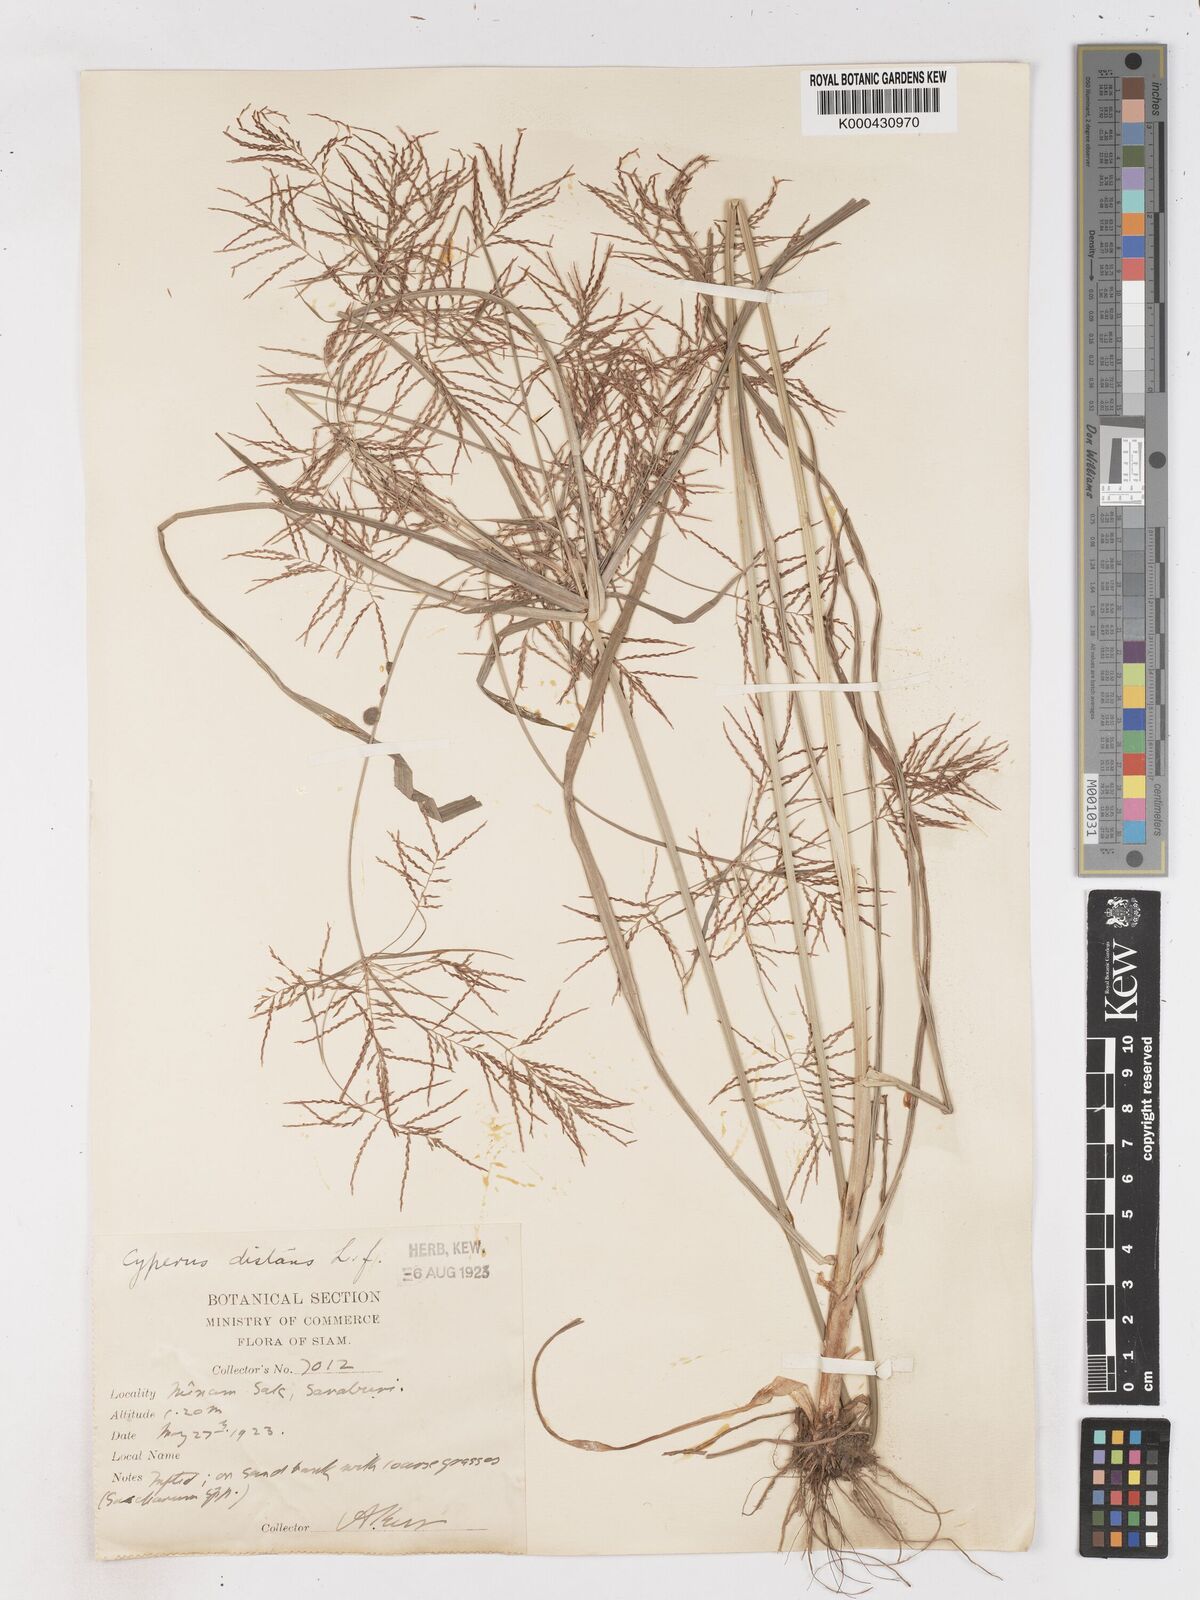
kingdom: Plantae
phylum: Tracheophyta
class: Liliopsida
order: Poales
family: Cyperaceae
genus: Cyperus
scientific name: Cyperus distans
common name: Slender cyperus
